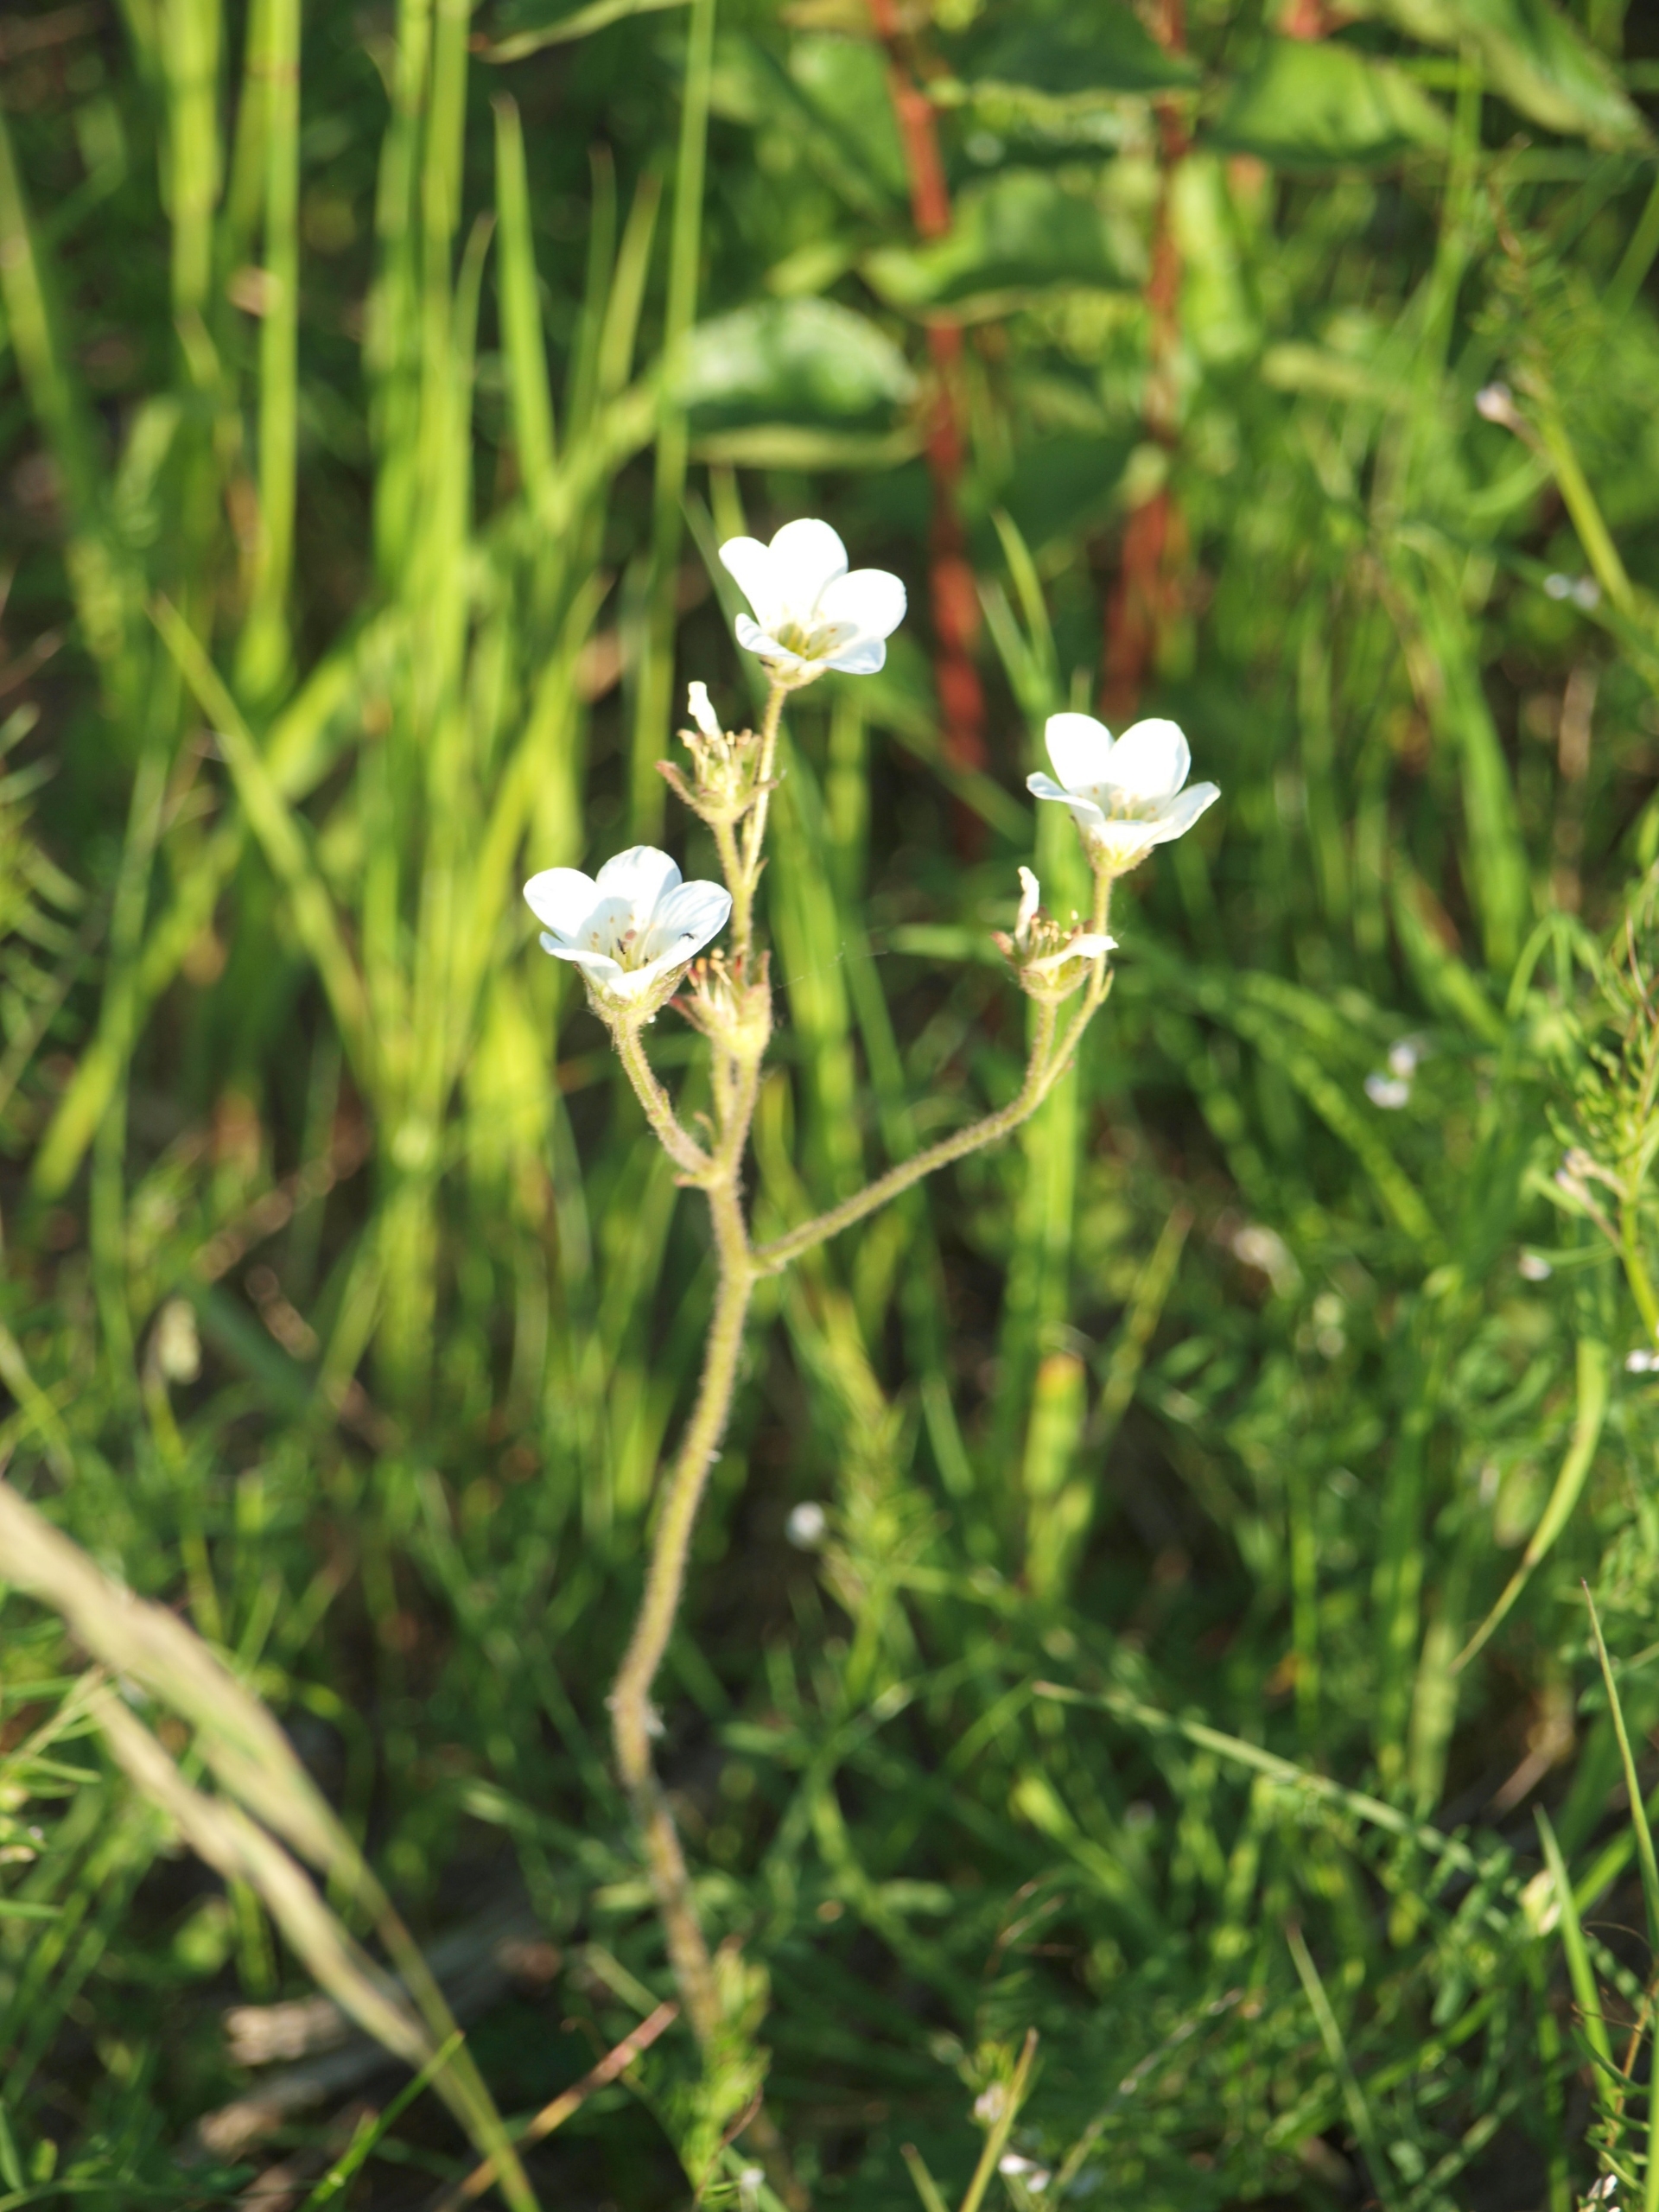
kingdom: Plantae
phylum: Tracheophyta
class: Magnoliopsida
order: Saxifragales
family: Saxifragaceae
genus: Saxifraga
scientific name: Saxifraga granulata
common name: Kornet stenbræk
